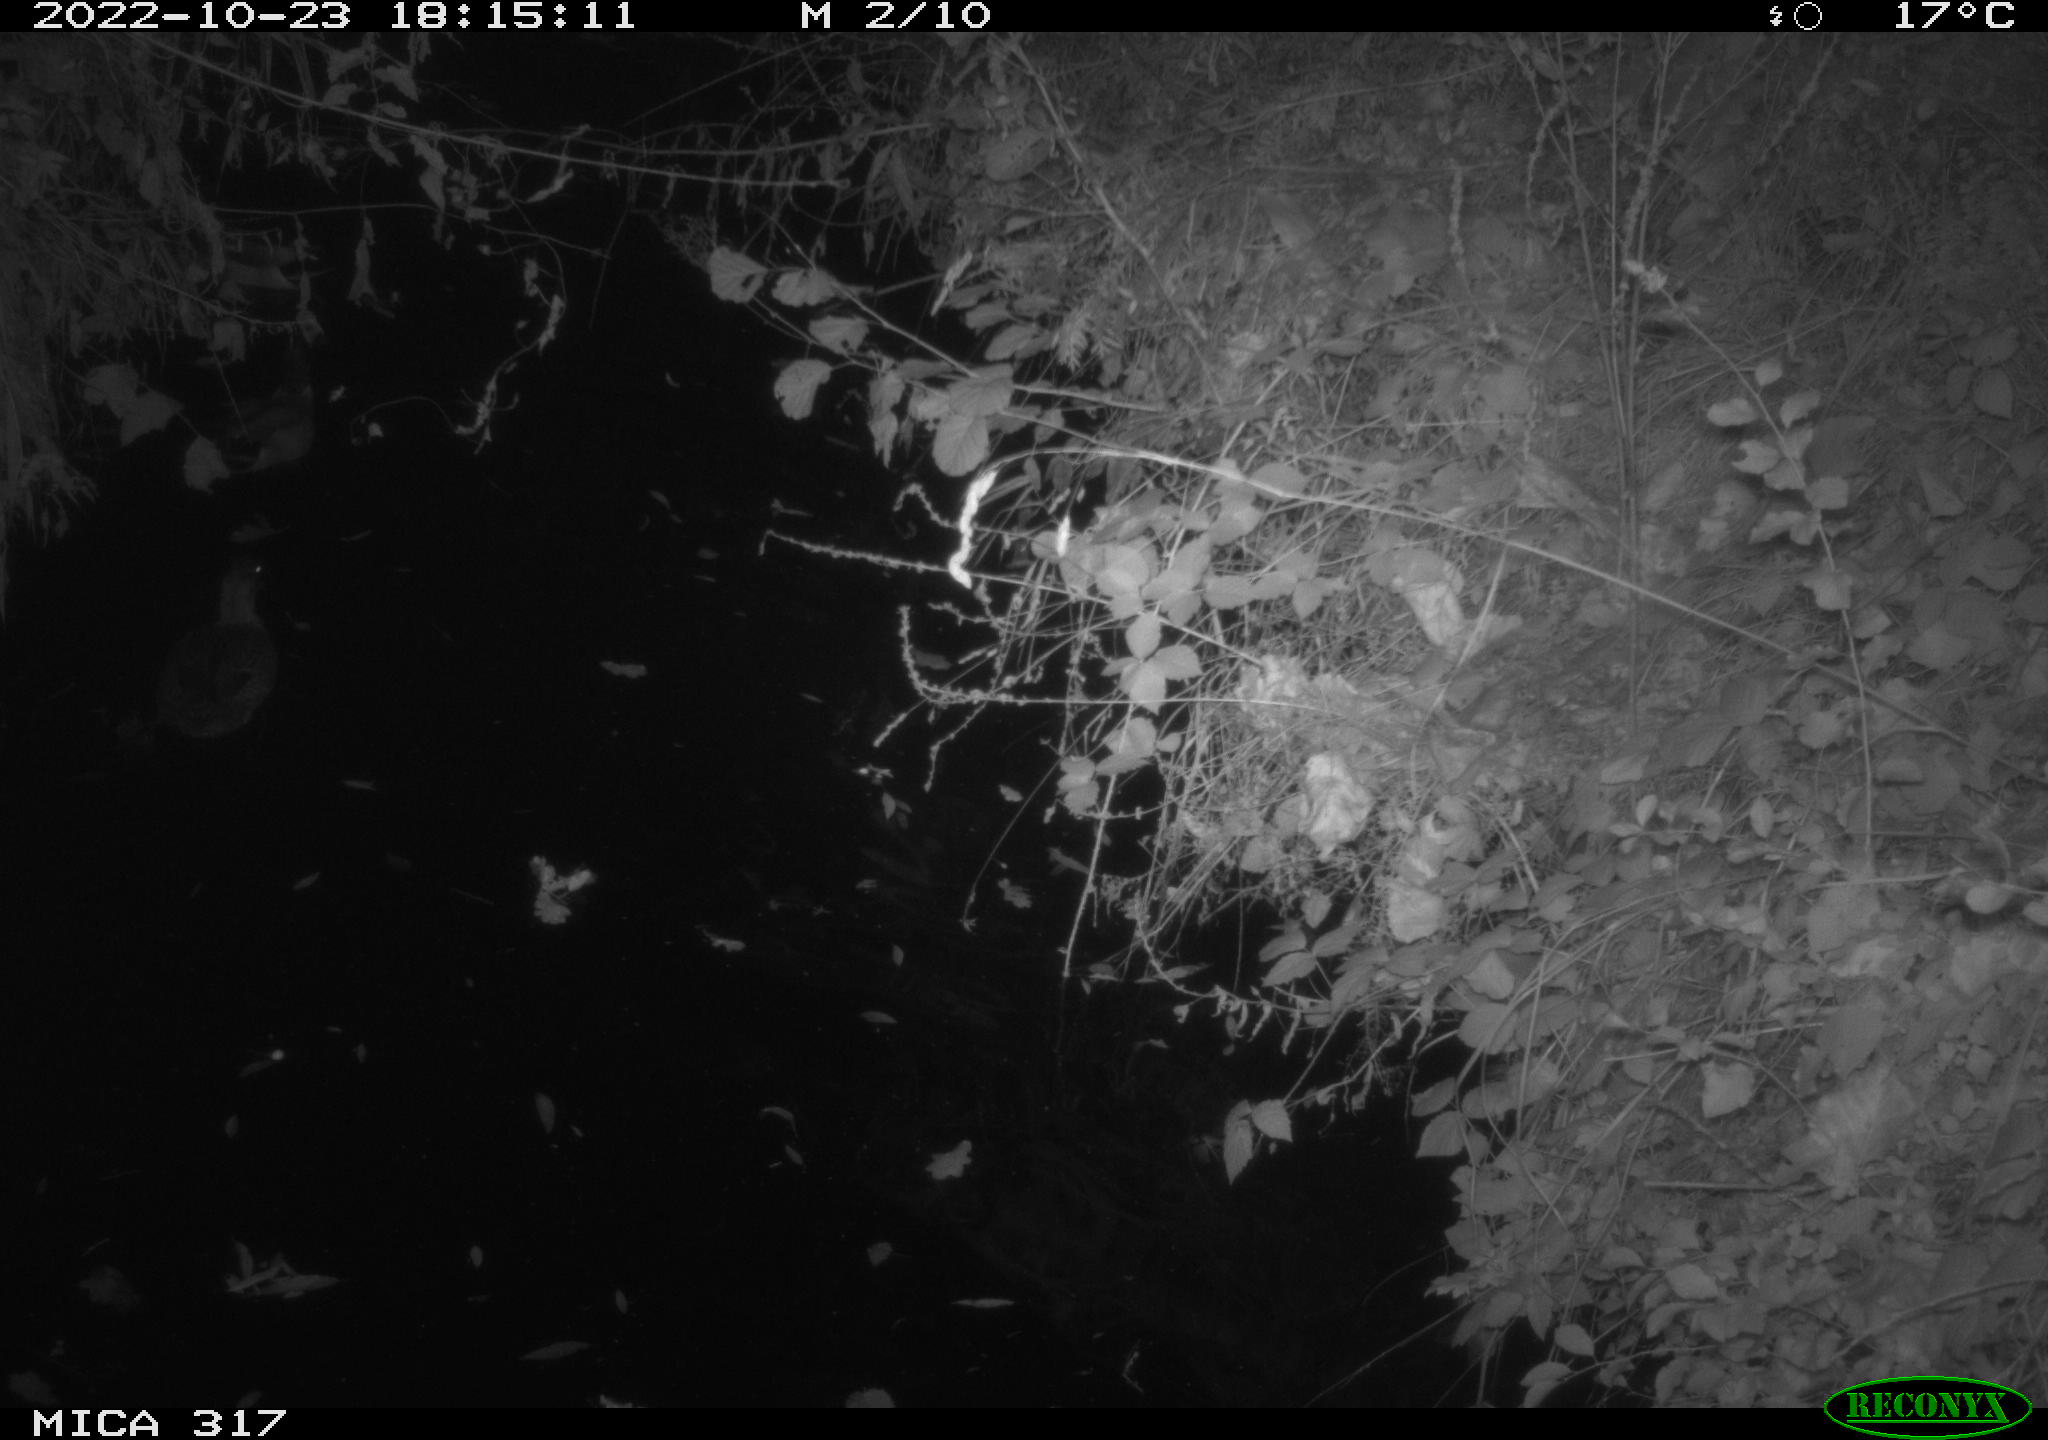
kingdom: Animalia
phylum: Chordata
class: Aves
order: Gruiformes
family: Rallidae
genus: Fulica
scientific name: Fulica atra
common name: Eurasian coot
